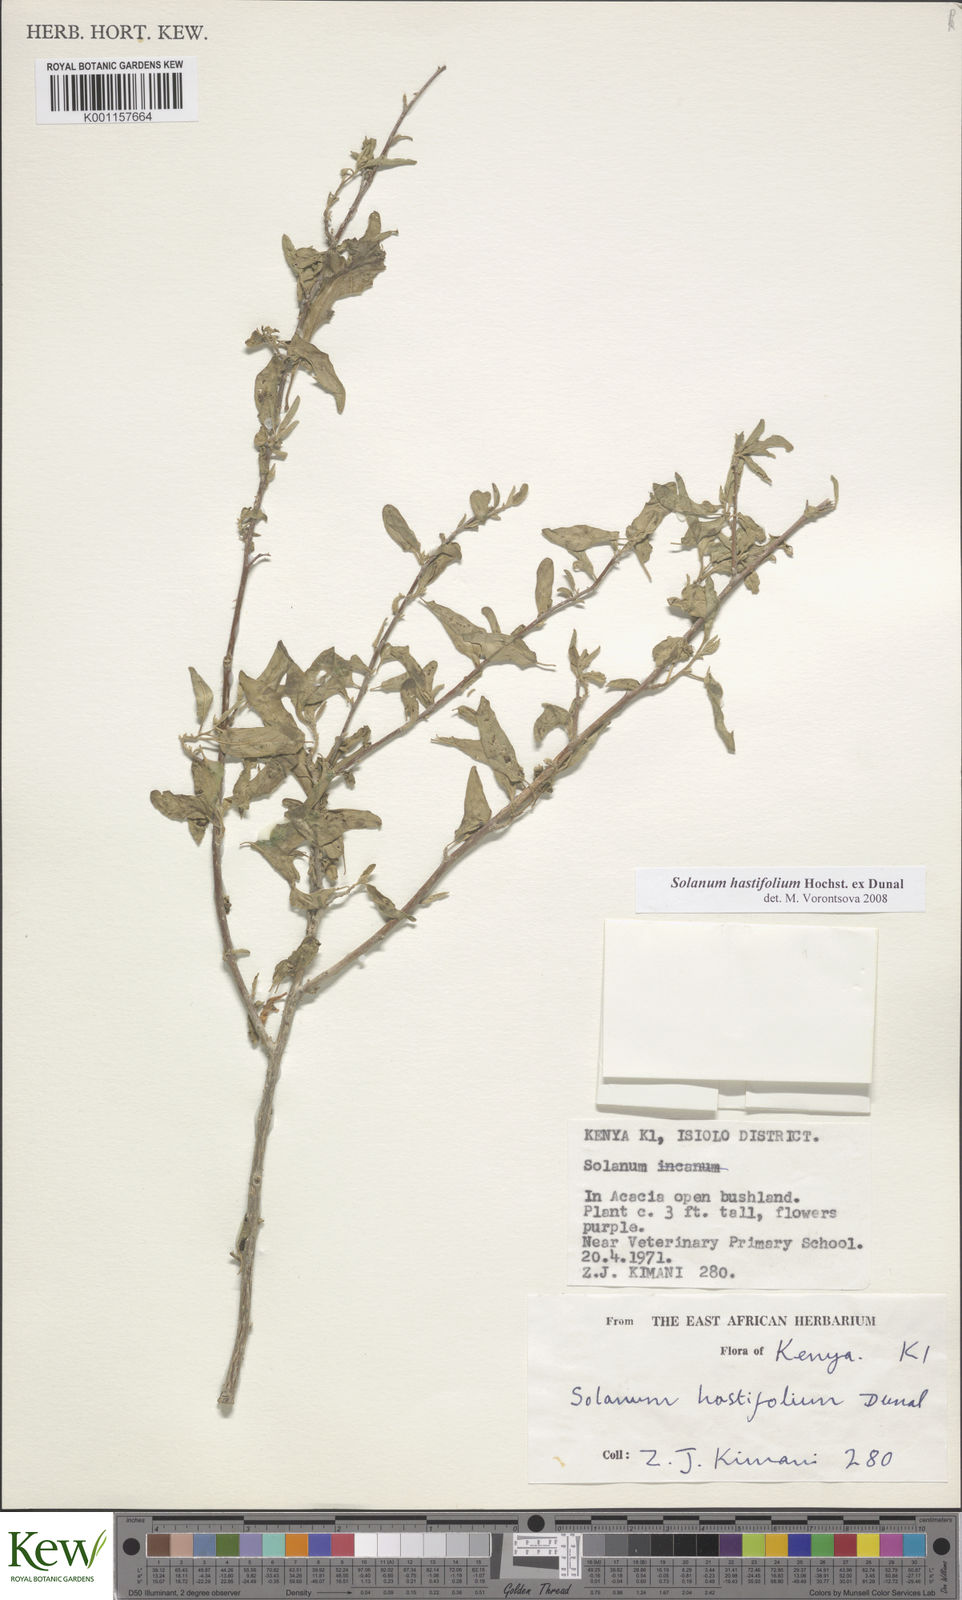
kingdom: Plantae
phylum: Tracheophyta
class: Magnoliopsida
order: Solanales
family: Solanaceae
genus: Solanum
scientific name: Solanum hastifolium
